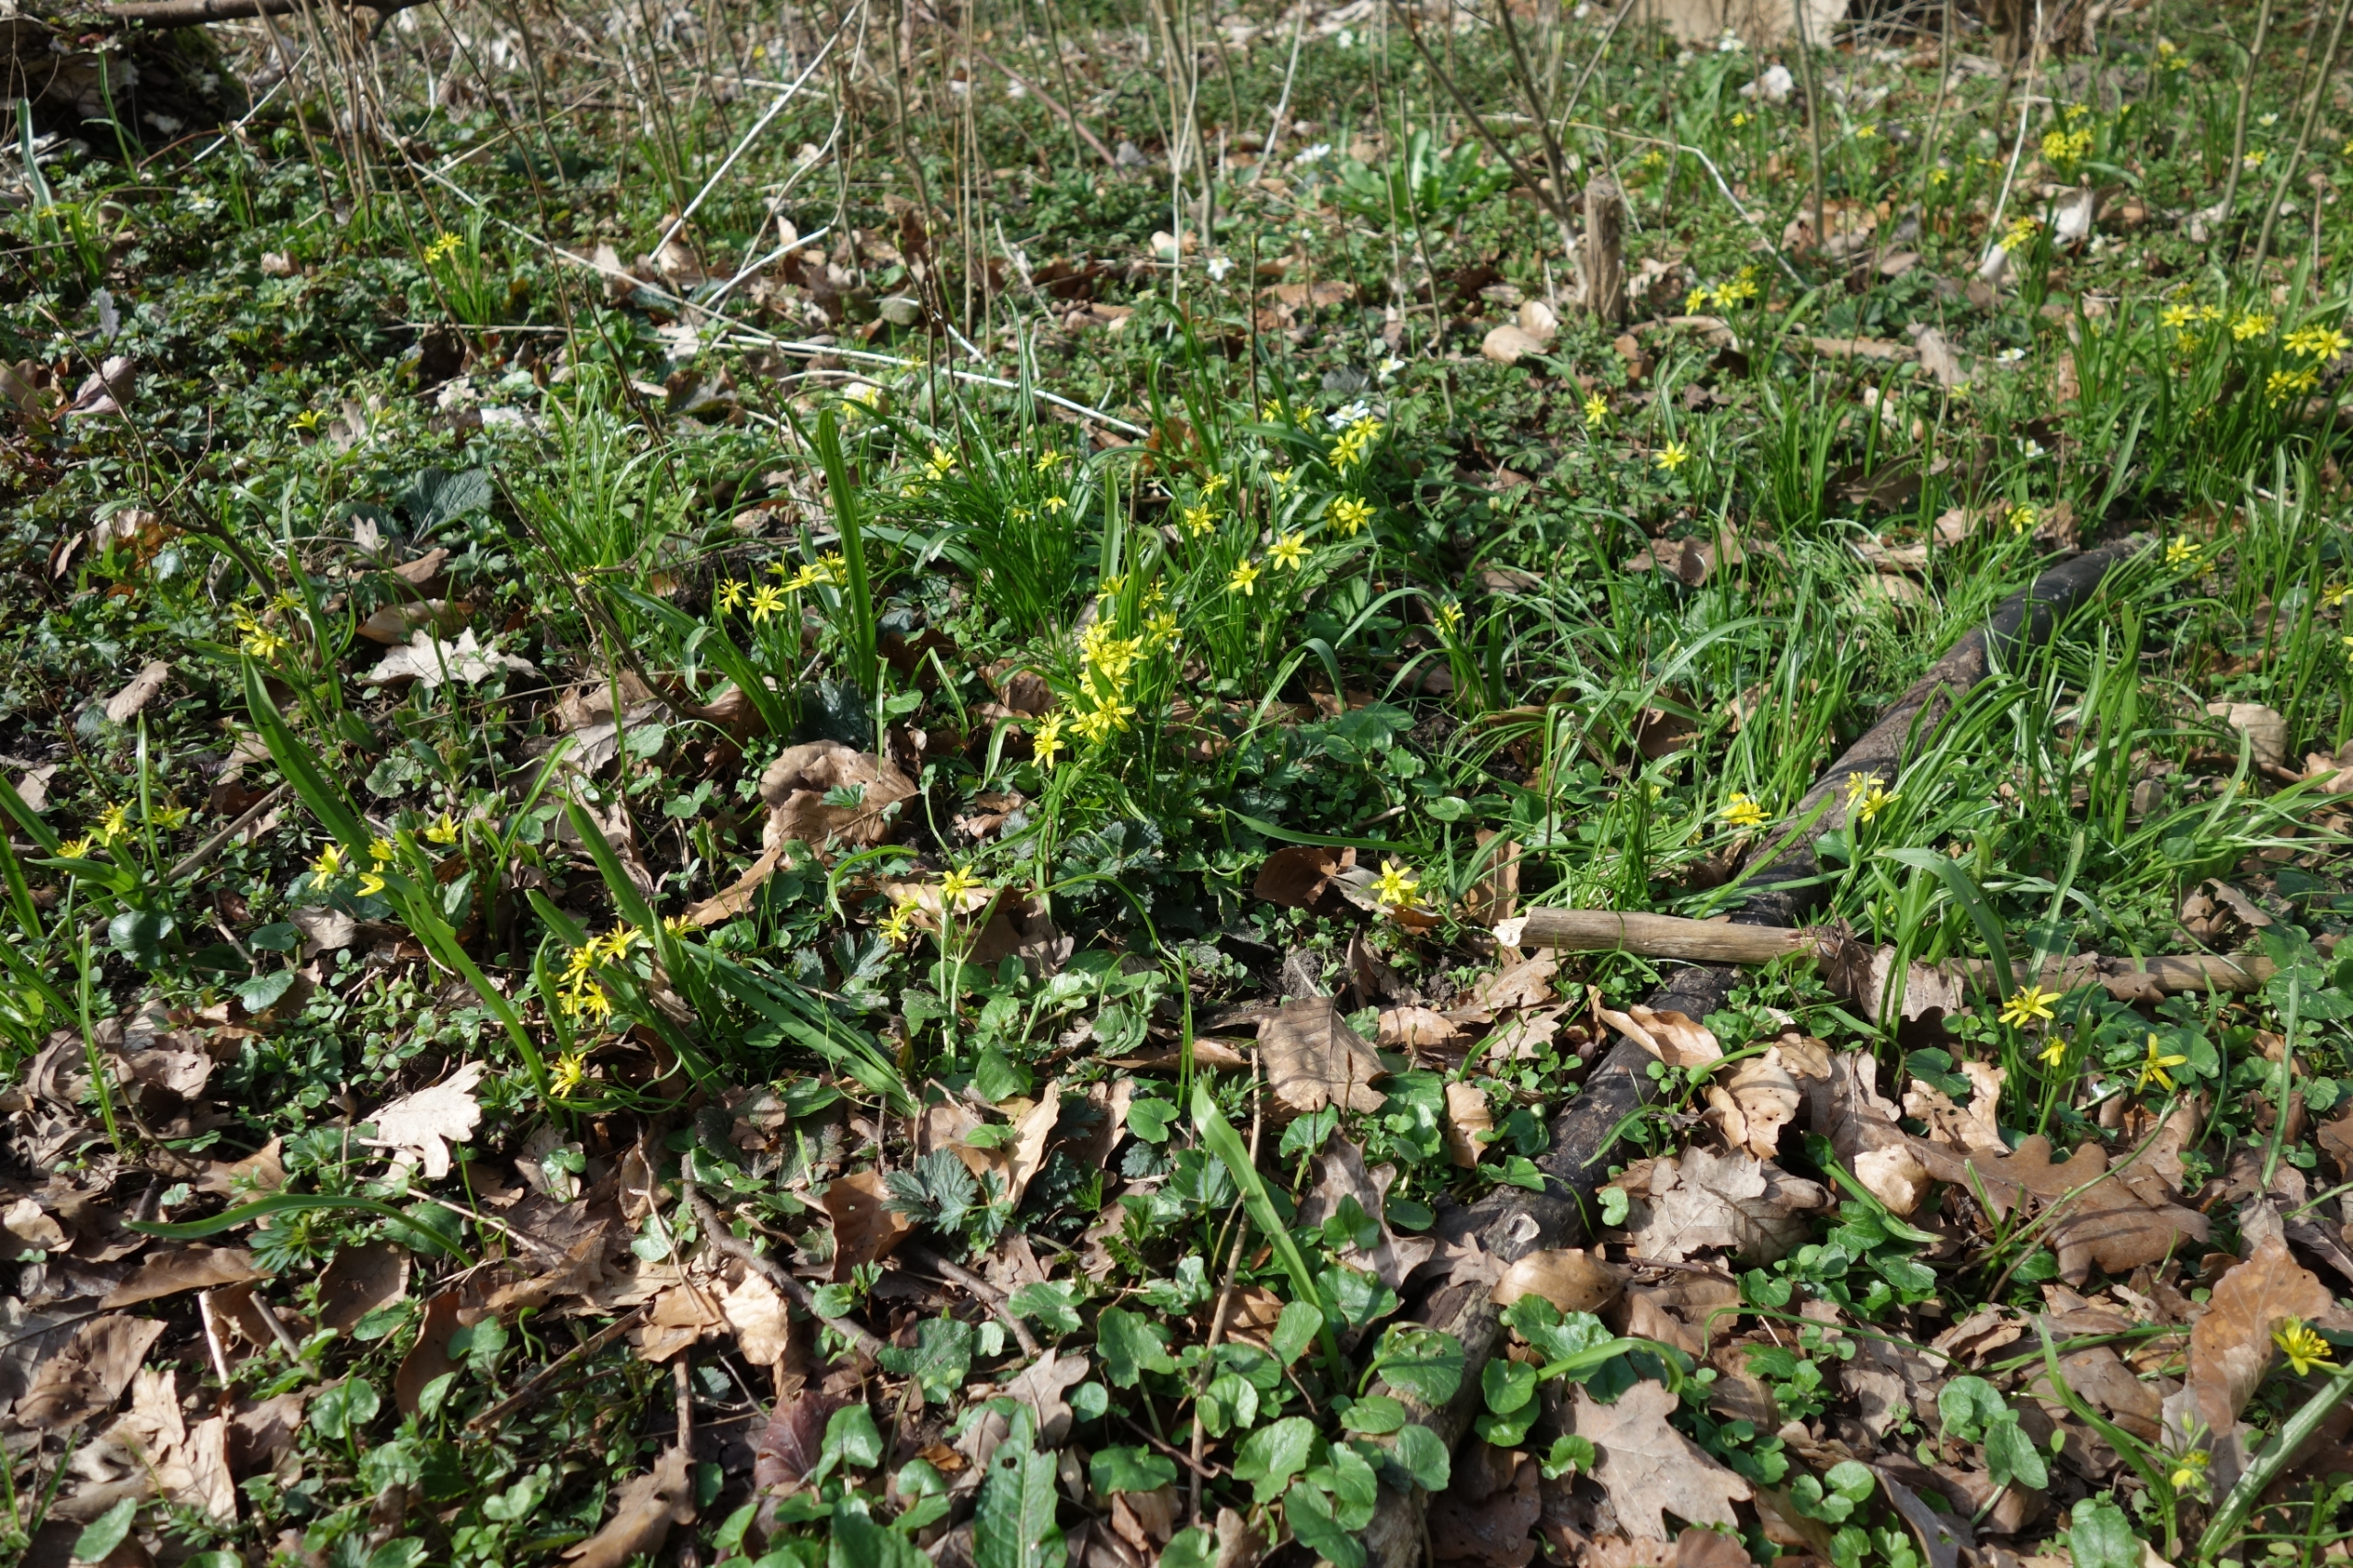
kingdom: Plantae
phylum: Tracheophyta
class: Liliopsida
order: Liliales
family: Liliaceae
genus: Gagea
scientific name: Gagea lutea
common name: Almindelig guldstjerne
